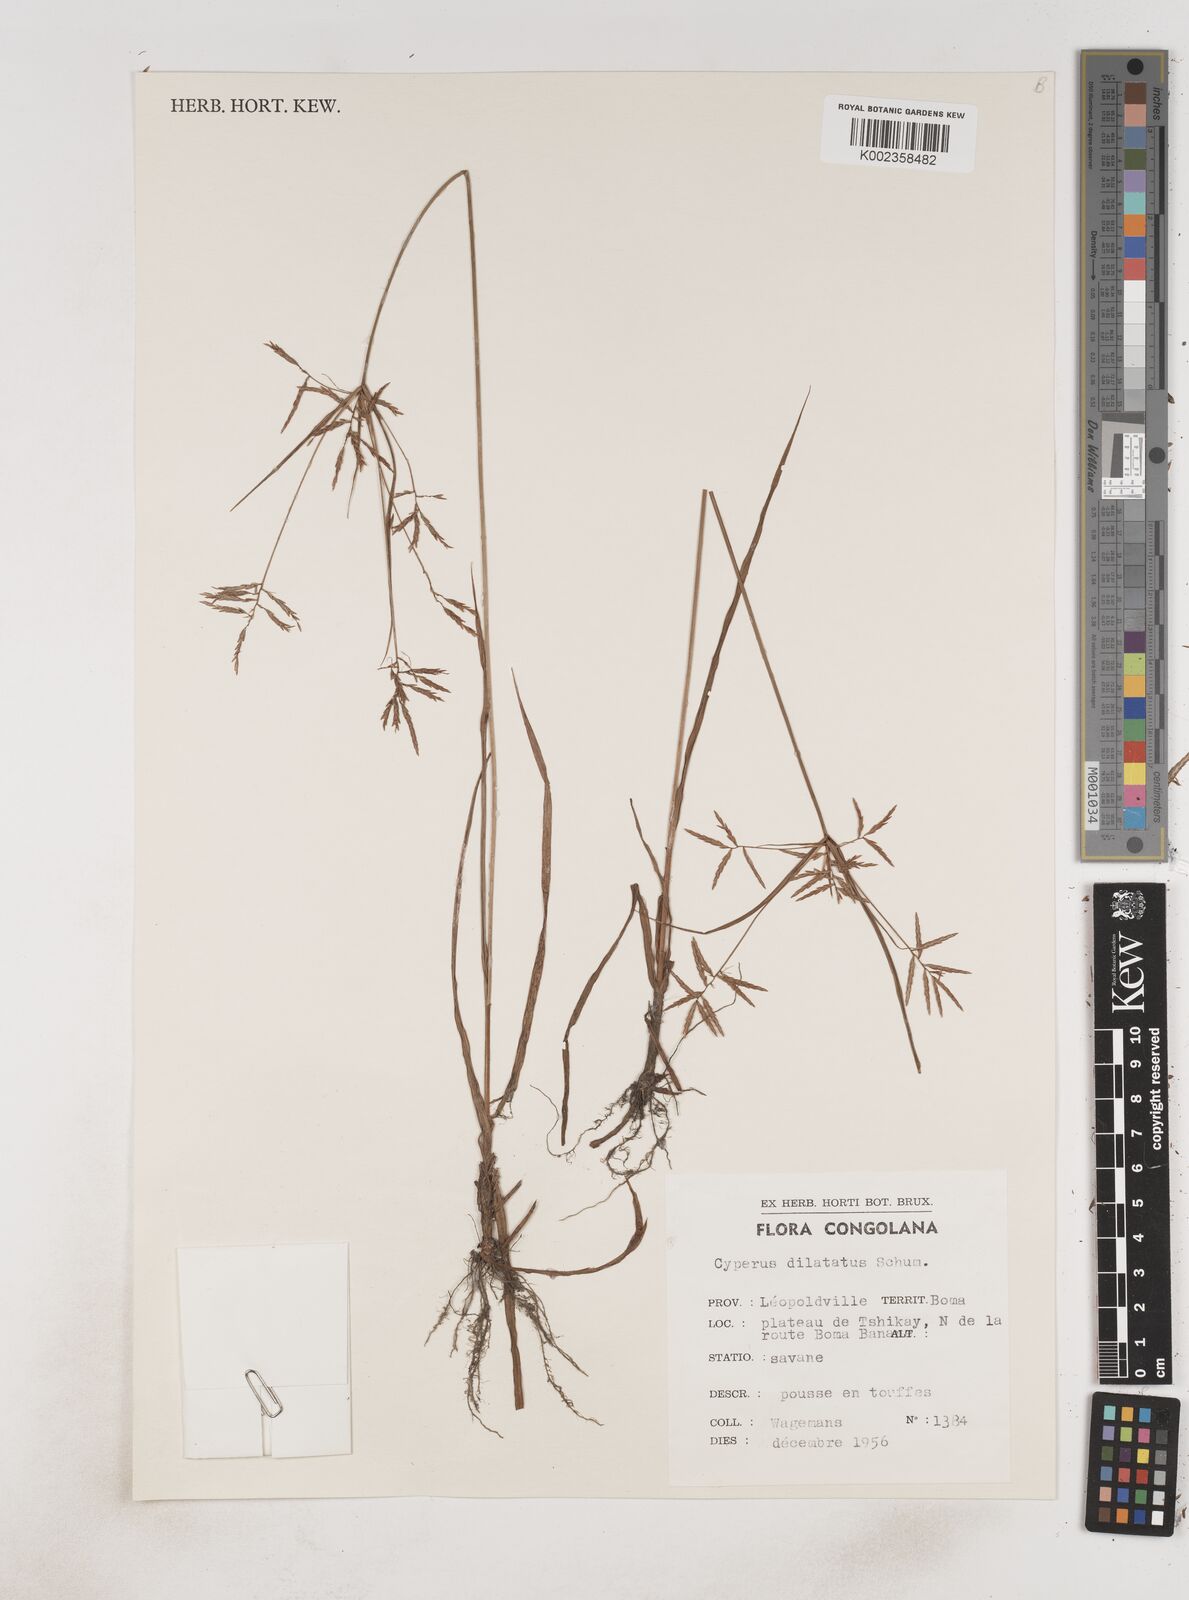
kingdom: Plantae
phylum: Tracheophyta
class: Liliopsida
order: Poales
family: Cyperaceae
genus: Cyperus
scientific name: Cyperus dilatatus
